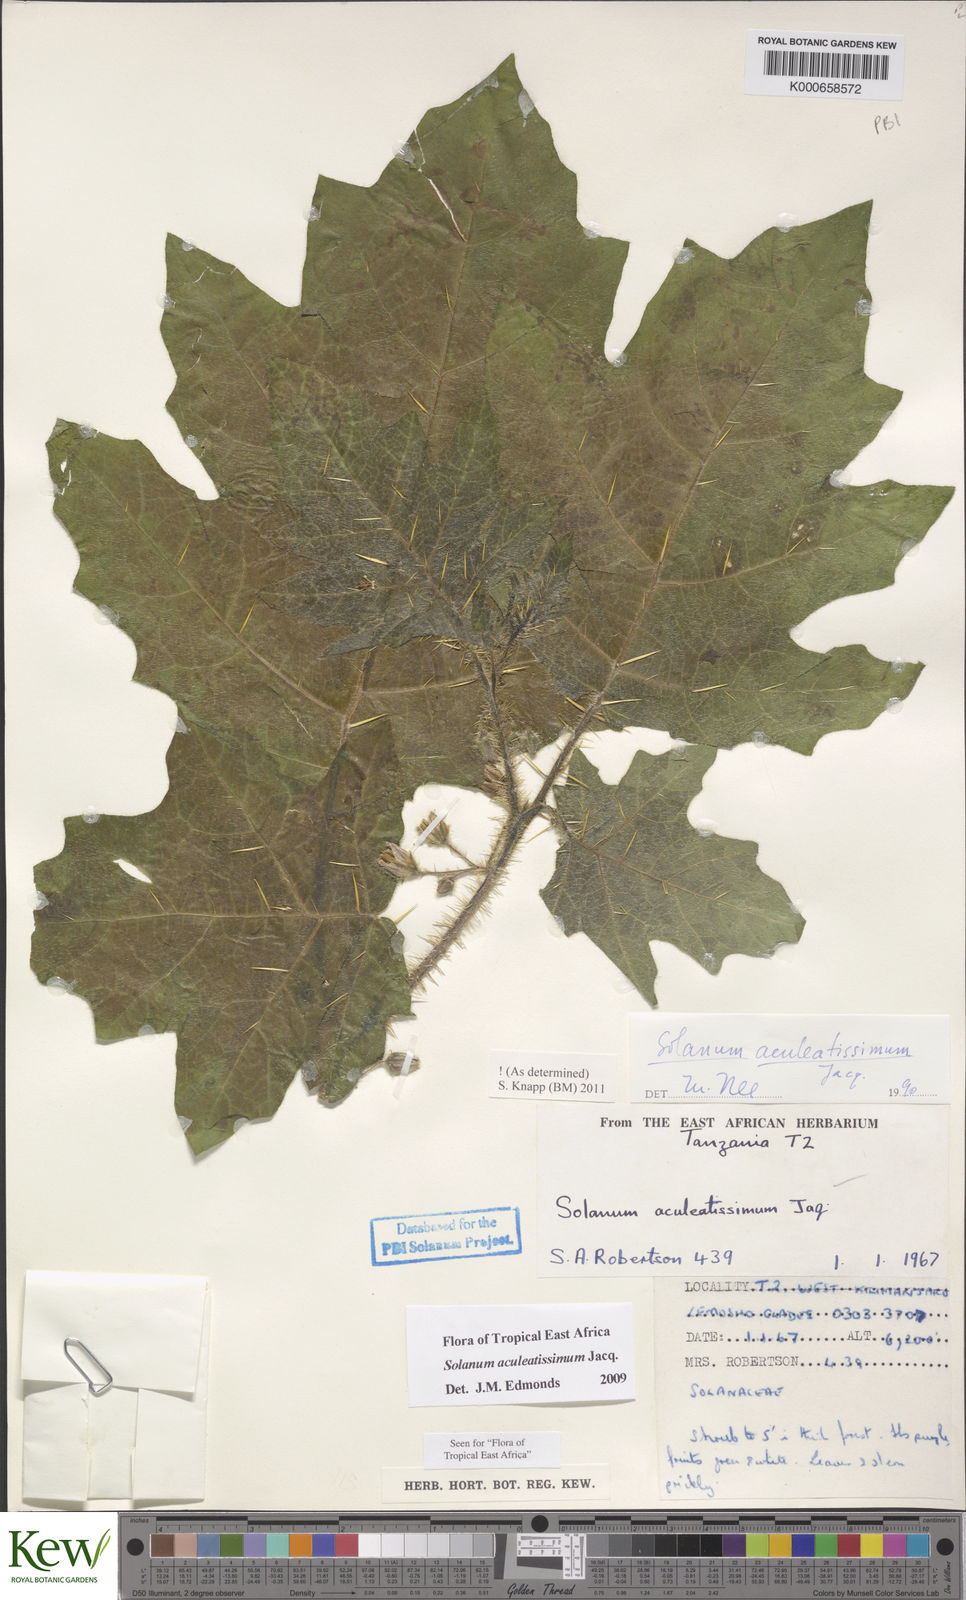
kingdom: Plantae
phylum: Tracheophyta
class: Magnoliopsida
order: Solanales
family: Solanaceae
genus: Solanum
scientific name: Solanum aculeatissimum
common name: Dutch eggplant
